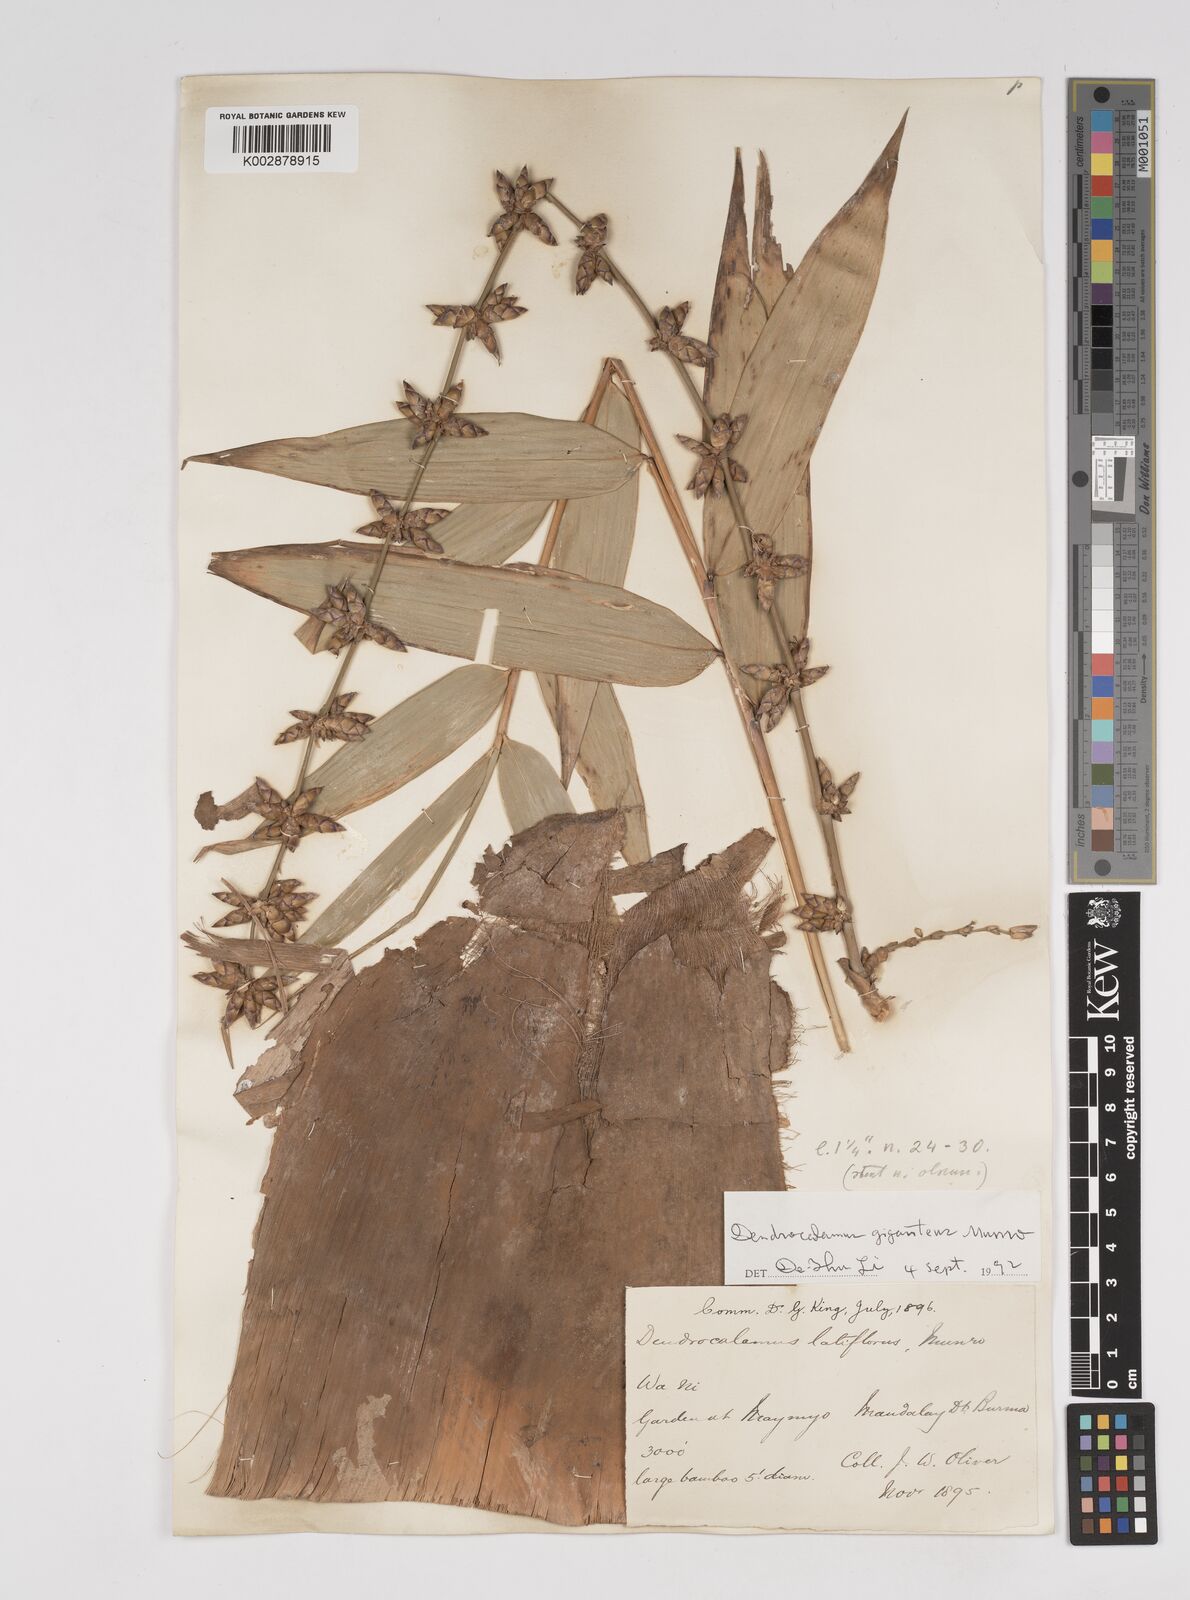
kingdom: Plantae
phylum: Tracheophyta
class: Liliopsida
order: Poales
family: Poaceae
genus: Dendrocalamus
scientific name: Dendrocalamus latiflorus
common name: Giant bamboo
